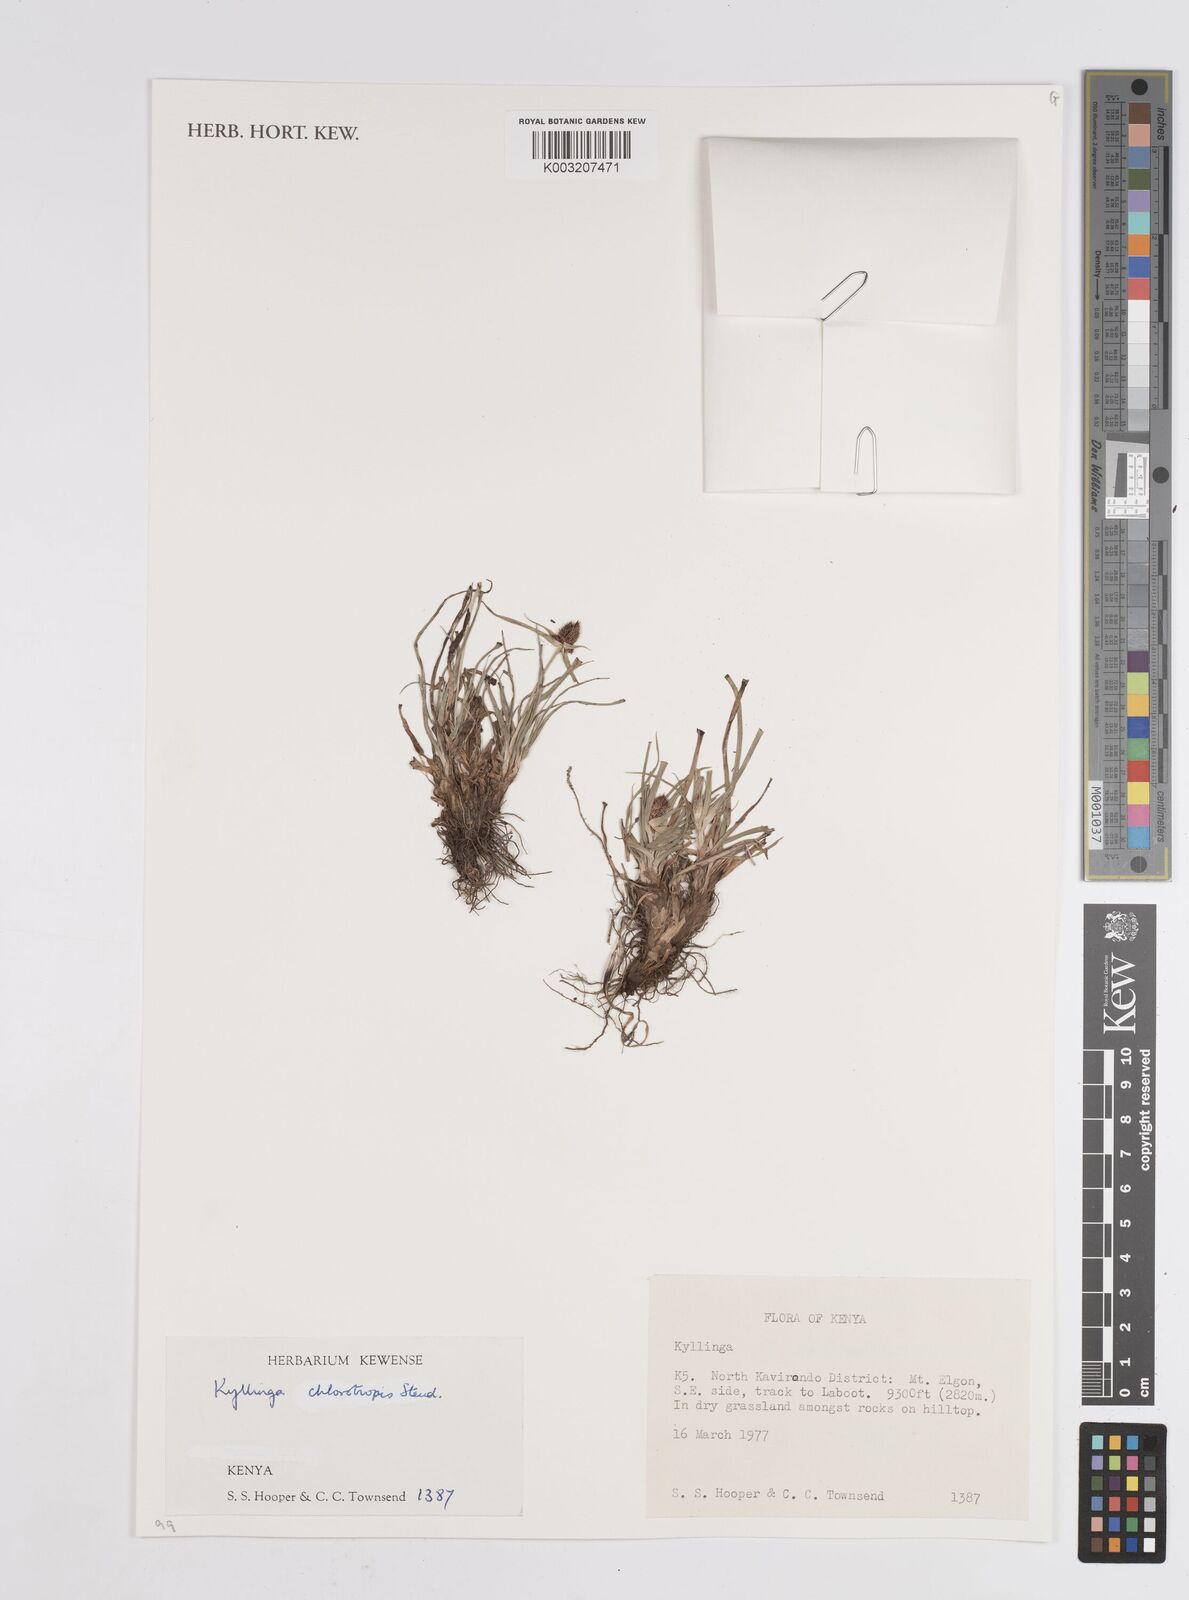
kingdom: Plantae
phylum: Tracheophyta
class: Liliopsida
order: Poales
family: Cyperaceae
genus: Cyperus
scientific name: Cyperus chlorotropis
